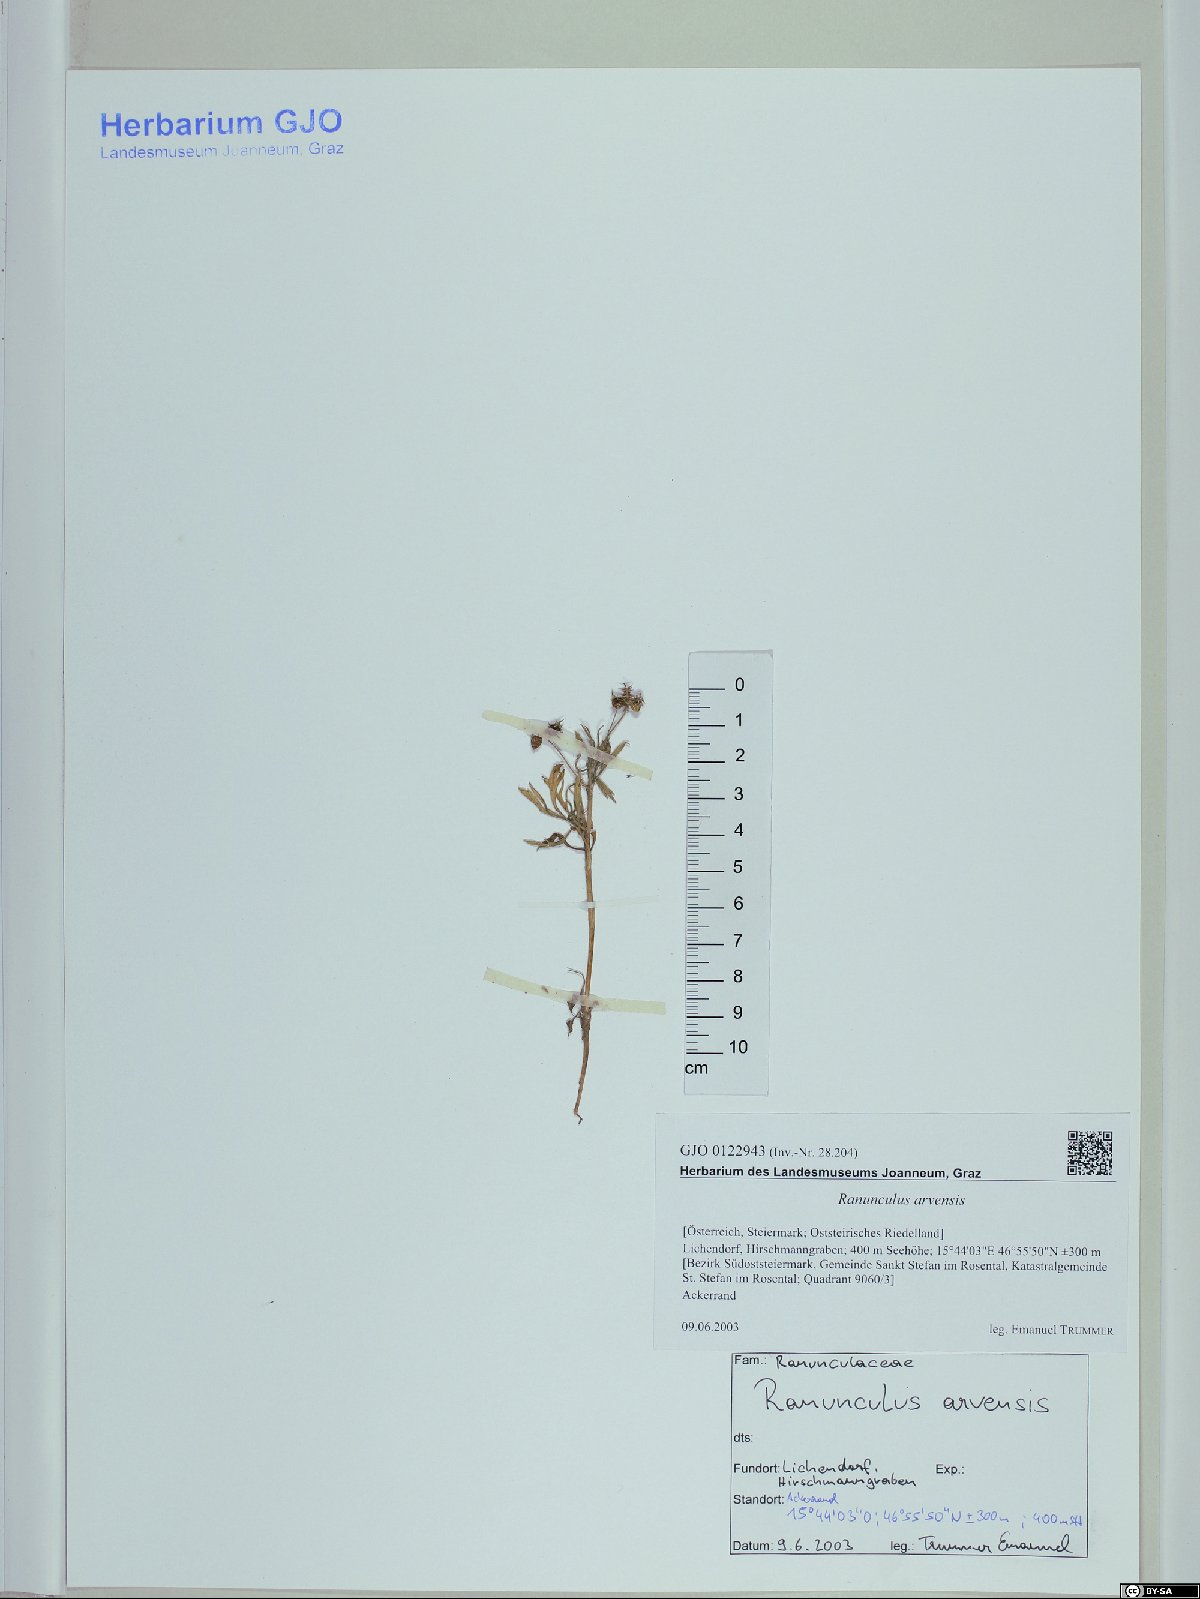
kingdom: Plantae
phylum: Tracheophyta
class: Magnoliopsida
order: Ranunculales
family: Ranunculaceae
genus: Ranunculus
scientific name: Ranunculus arvensis
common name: Corn buttercup
